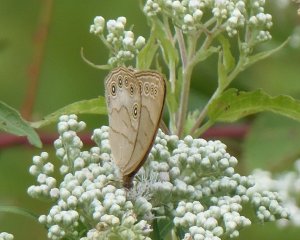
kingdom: Animalia
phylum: Arthropoda
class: Insecta
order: Lepidoptera
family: Nymphalidae
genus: Lethe
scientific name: Lethe eurydice
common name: Appalachian Eyed Brown
